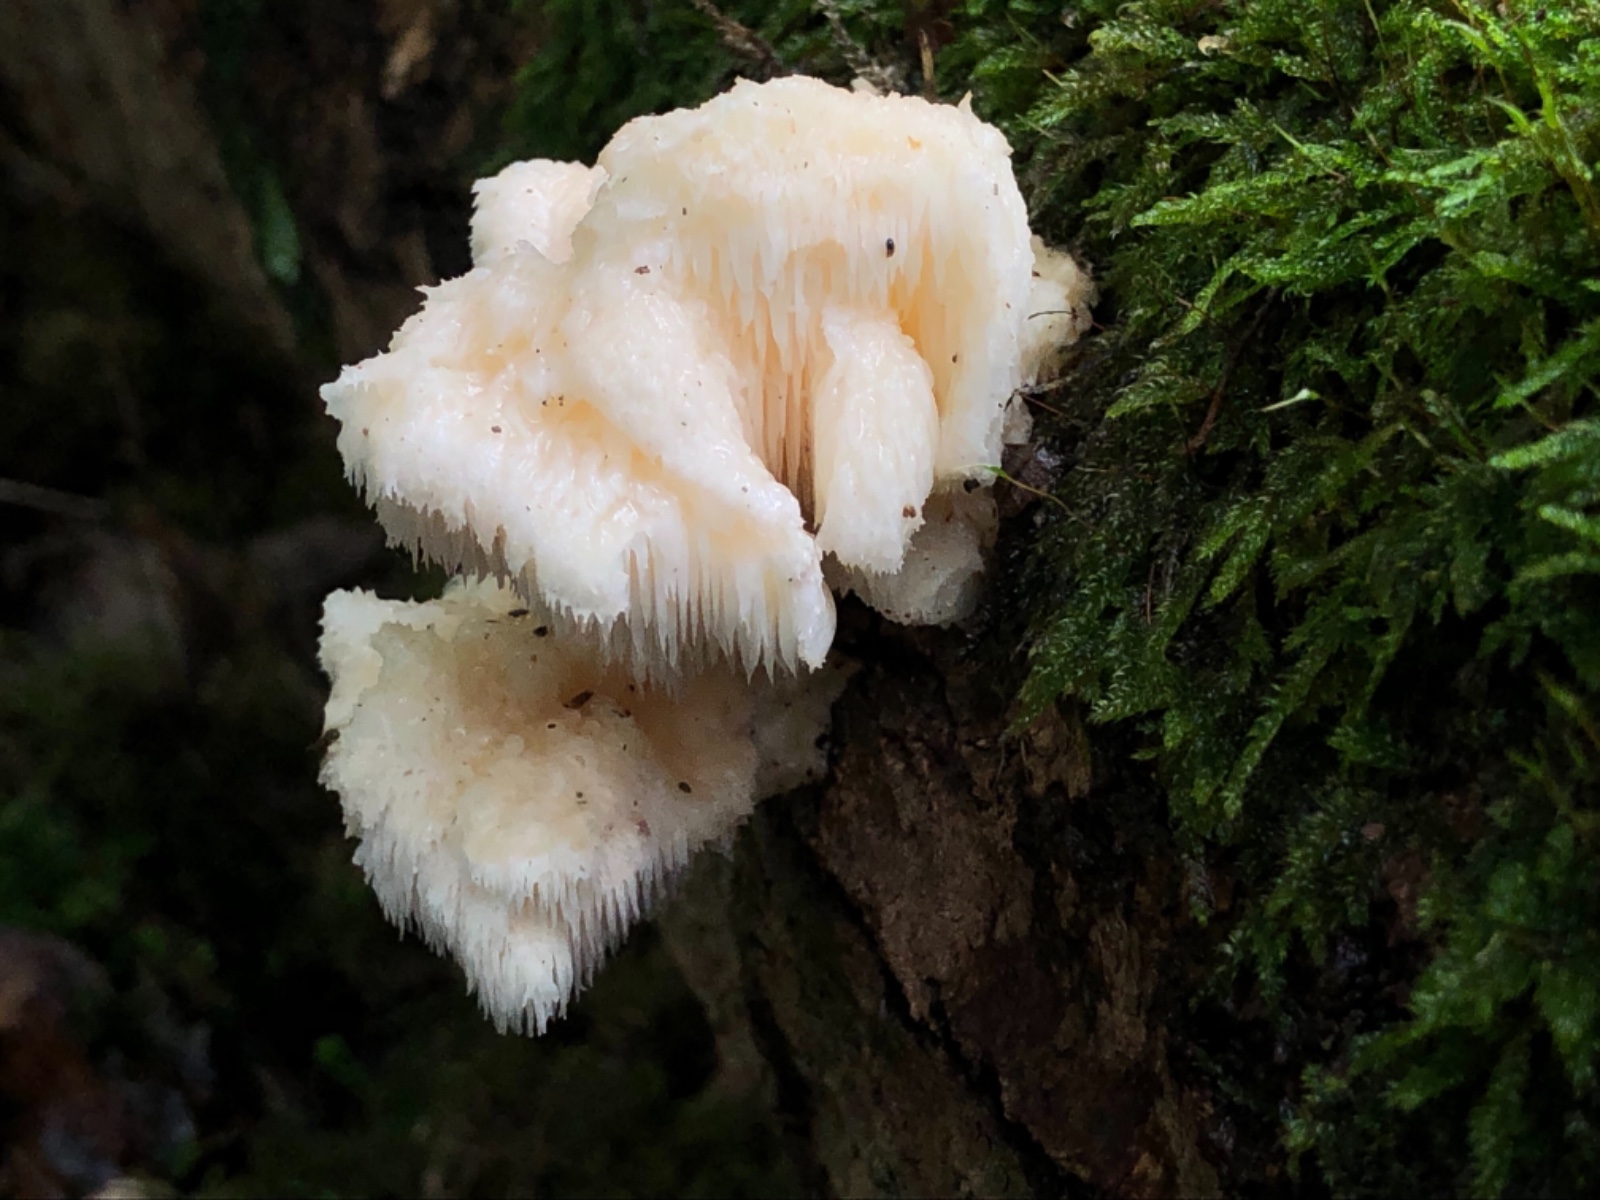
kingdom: Fungi
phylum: Basidiomycota
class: Agaricomycetes
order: Russulales
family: Hericiaceae
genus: Hericium
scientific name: Hericium cirrhatum
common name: børstepigsvamp
